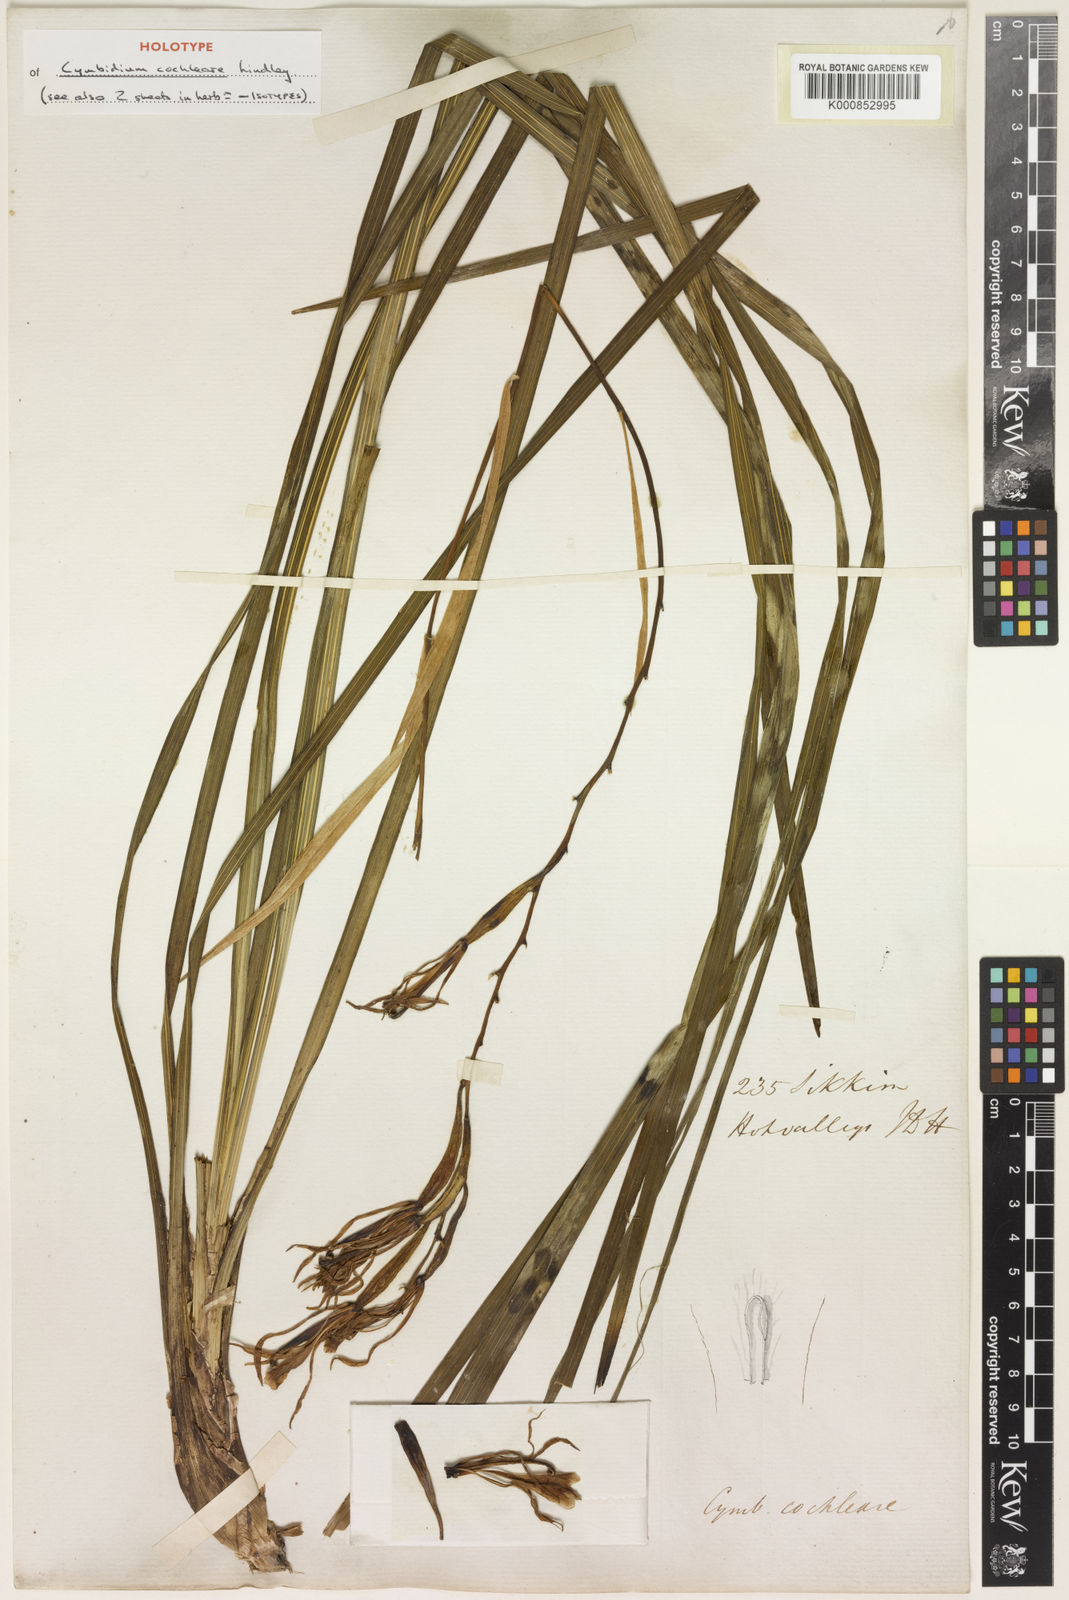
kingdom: Plantae
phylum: Tracheophyta
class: Liliopsida
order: Asparagales
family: Orchidaceae
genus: Cymbidium
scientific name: Cymbidium cochleare
